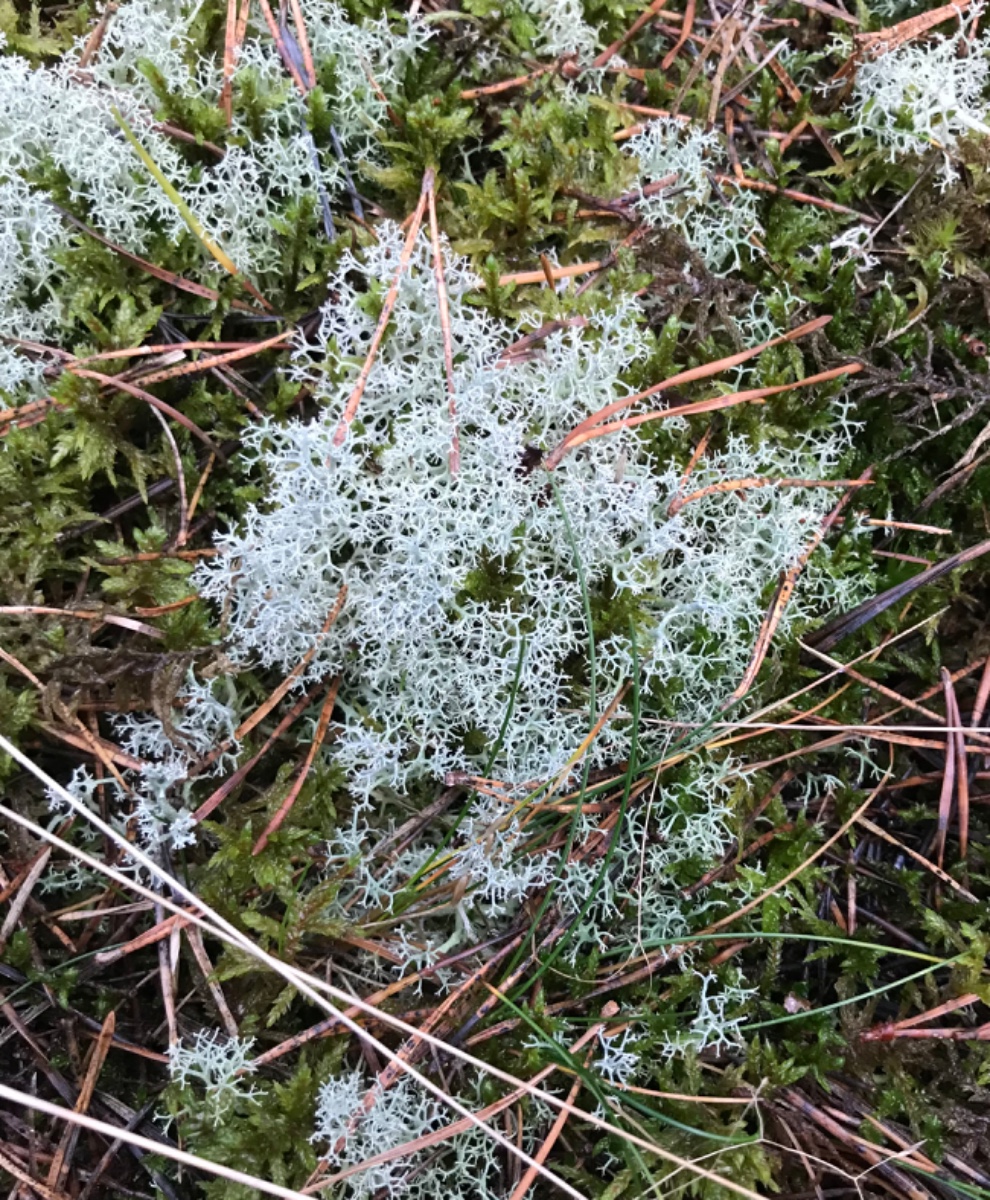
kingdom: Fungi
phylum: Ascomycota
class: Lecanoromycetes
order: Lecanorales
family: Cladoniaceae
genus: Cladonia
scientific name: Cladonia portentosa
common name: hede-rensdyrlav
